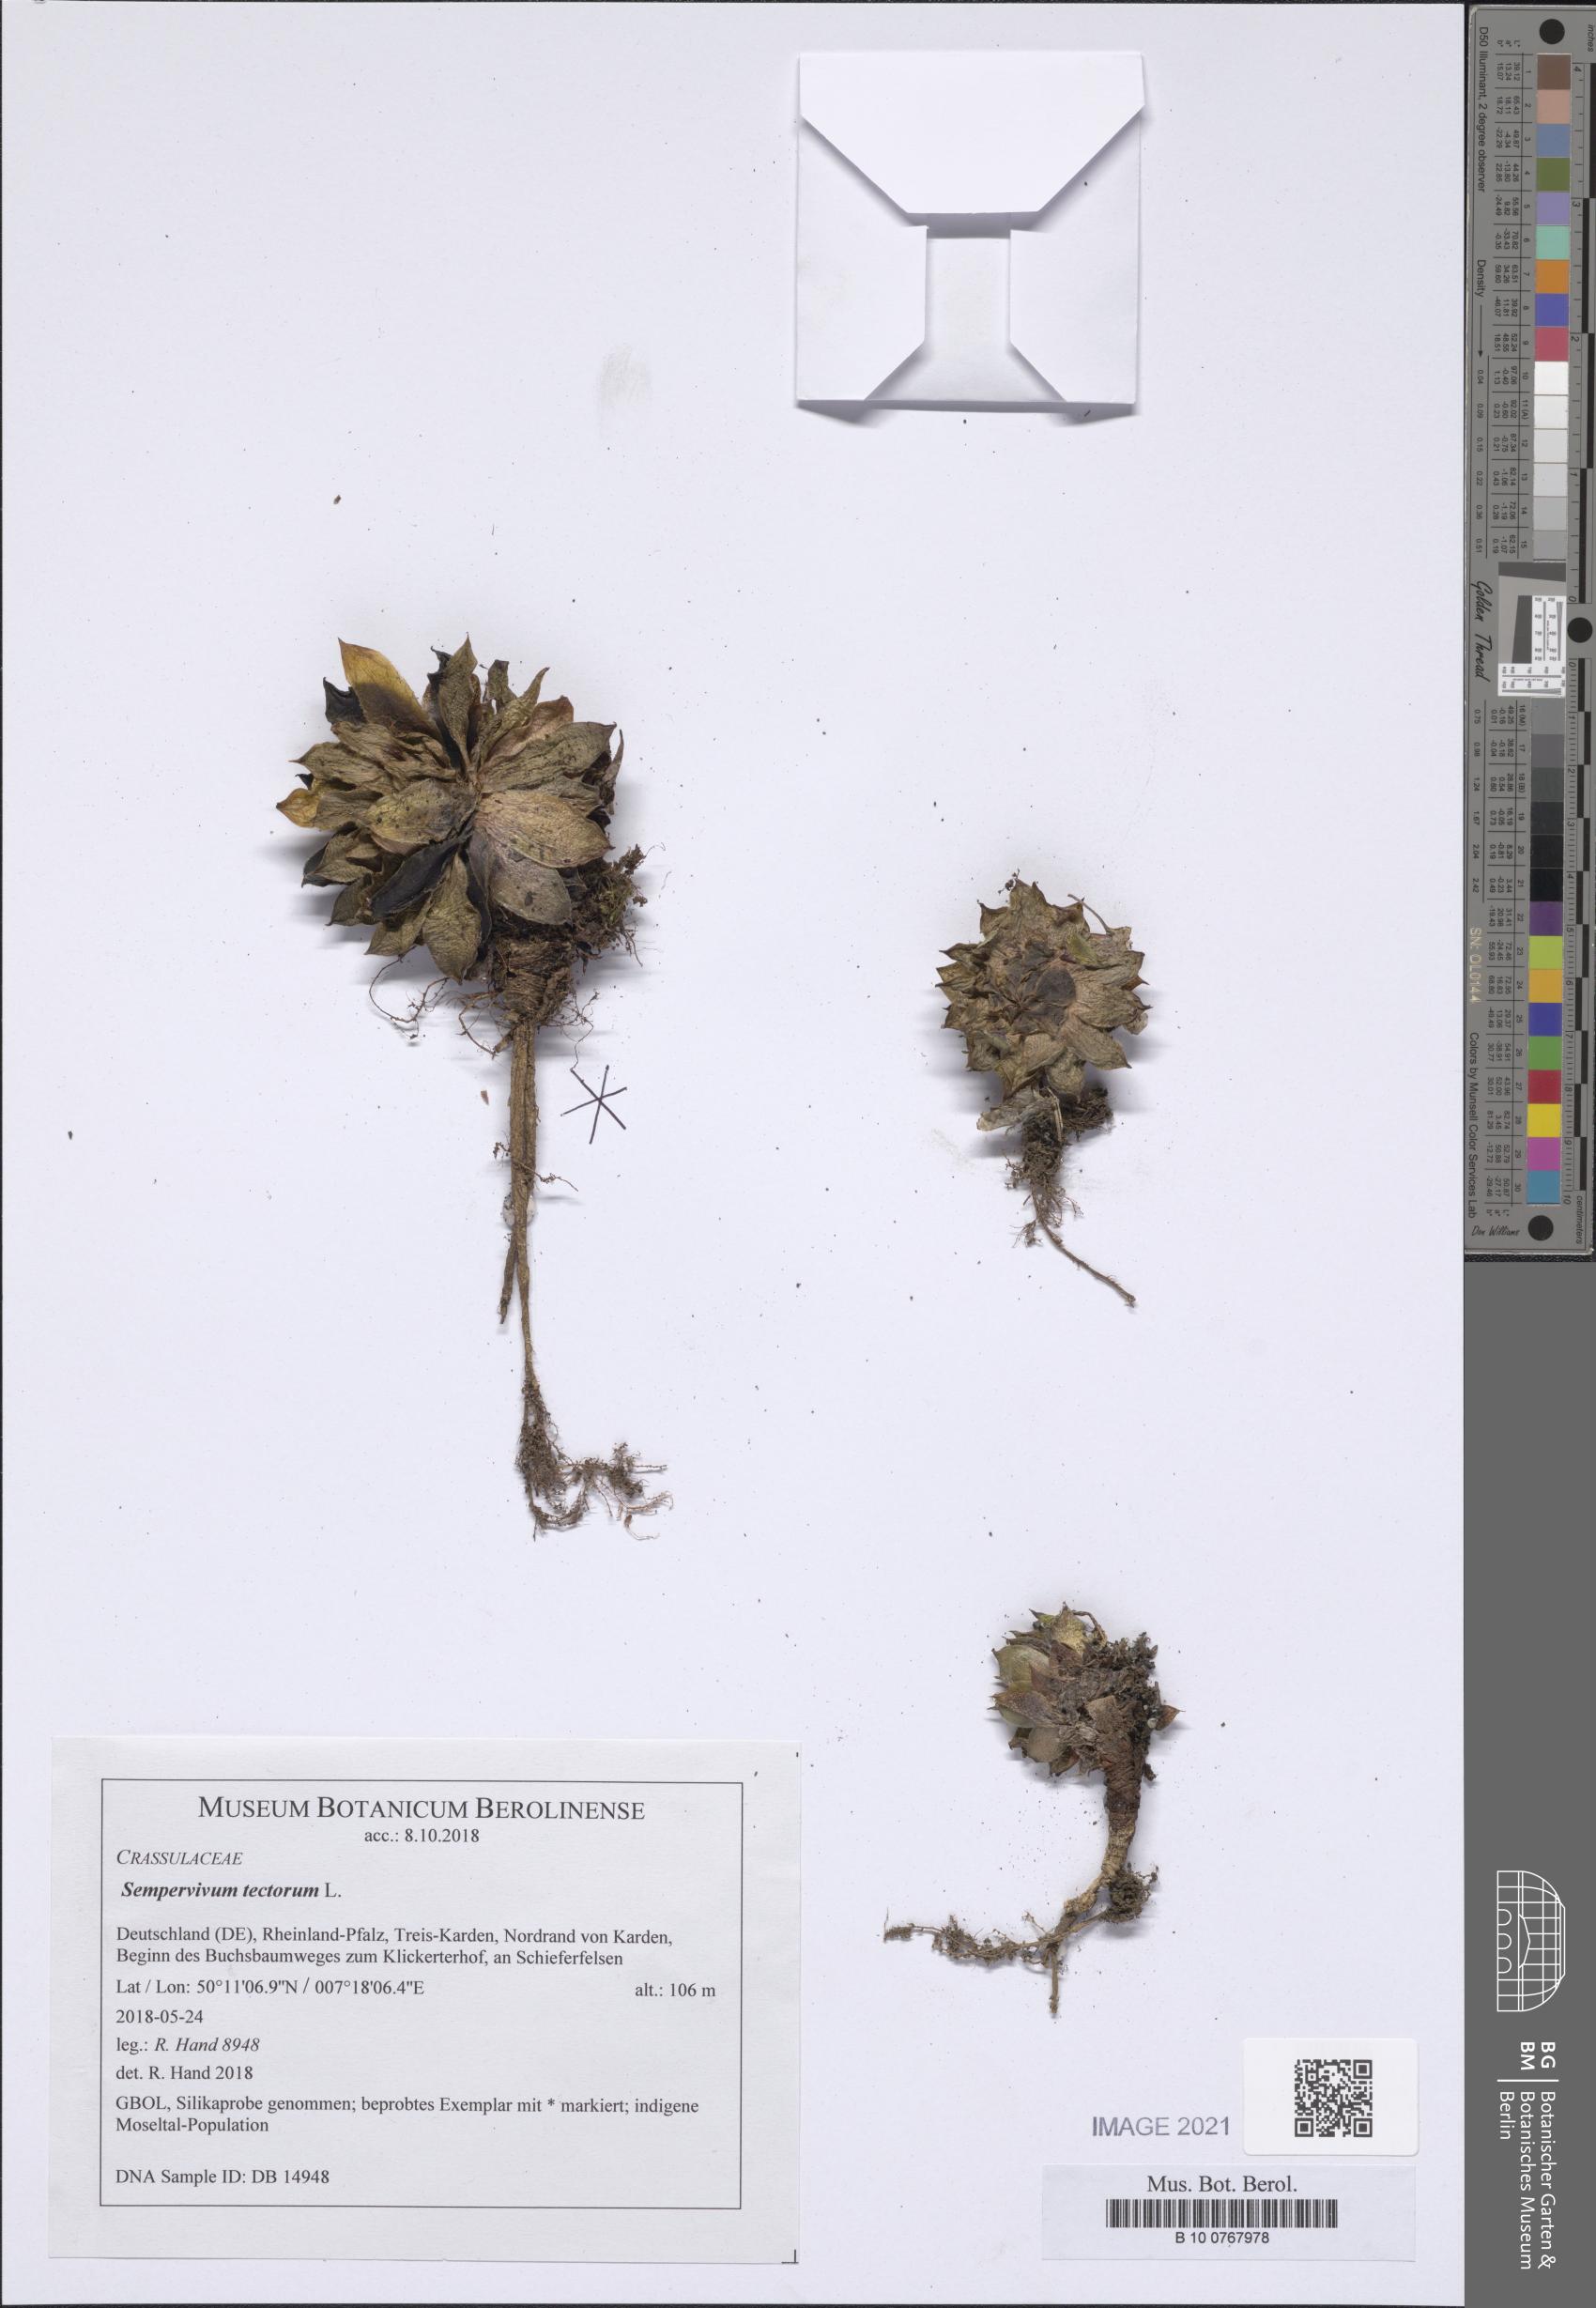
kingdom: Plantae
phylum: Tracheophyta
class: Magnoliopsida
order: Saxifragales
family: Crassulaceae
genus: Sempervivum
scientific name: Sempervivum tectorum
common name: House-leek
